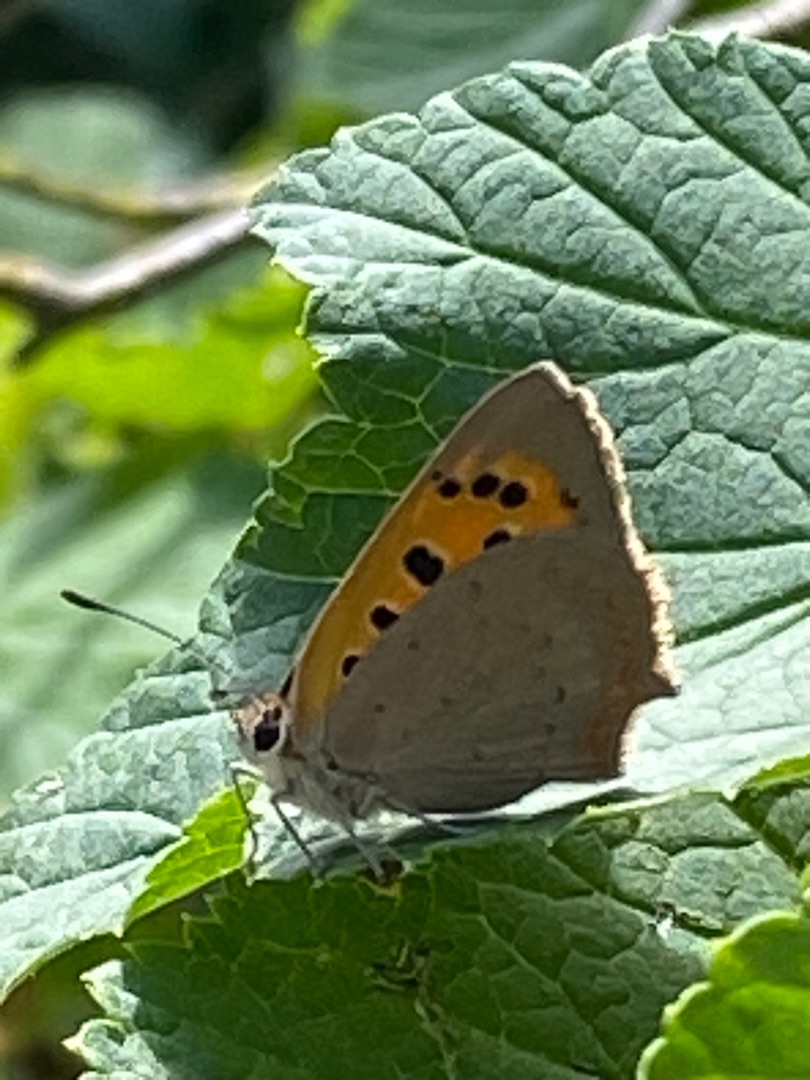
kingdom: Animalia
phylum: Arthropoda
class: Insecta
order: Lepidoptera
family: Lycaenidae
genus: Lycaena
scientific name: Lycaena phlaeas
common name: Lille ildfugl
